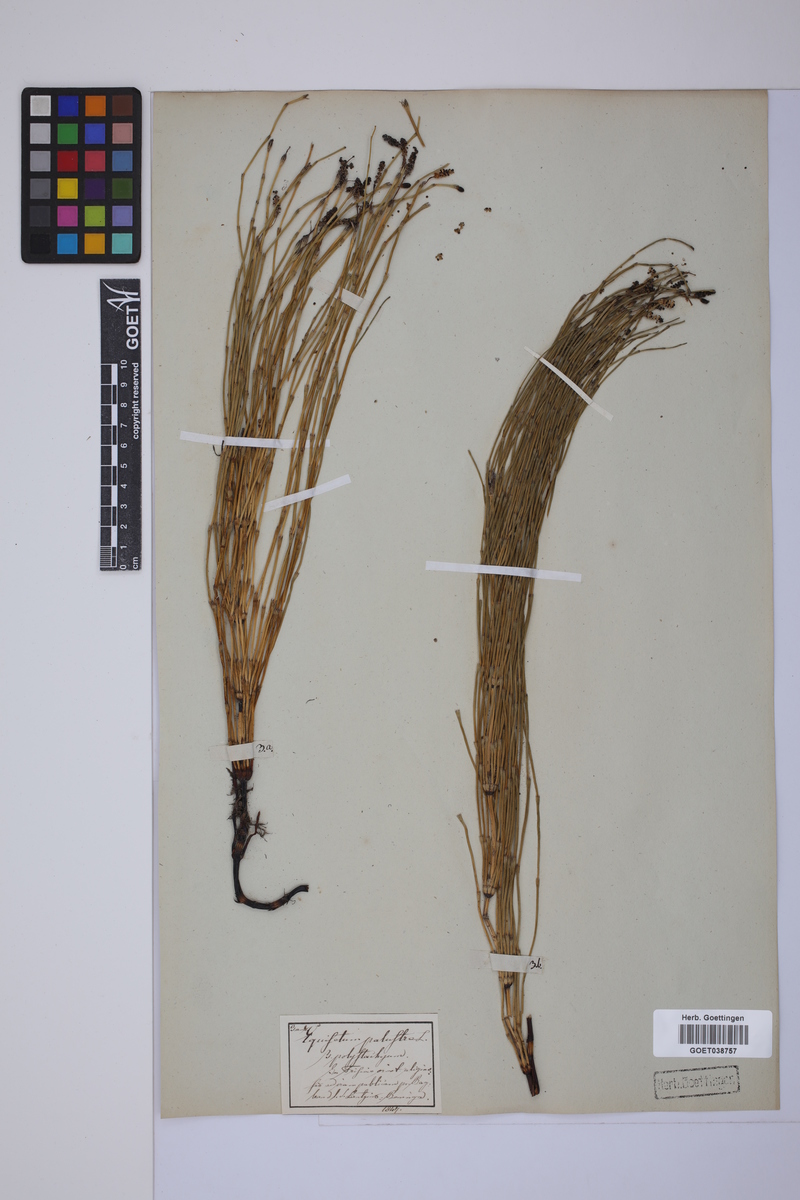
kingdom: Plantae
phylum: Tracheophyta
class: Polypodiopsida
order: Equisetales
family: Equisetaceae
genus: Equisetum
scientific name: Equisetum palustre
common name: Marsh horsetail
